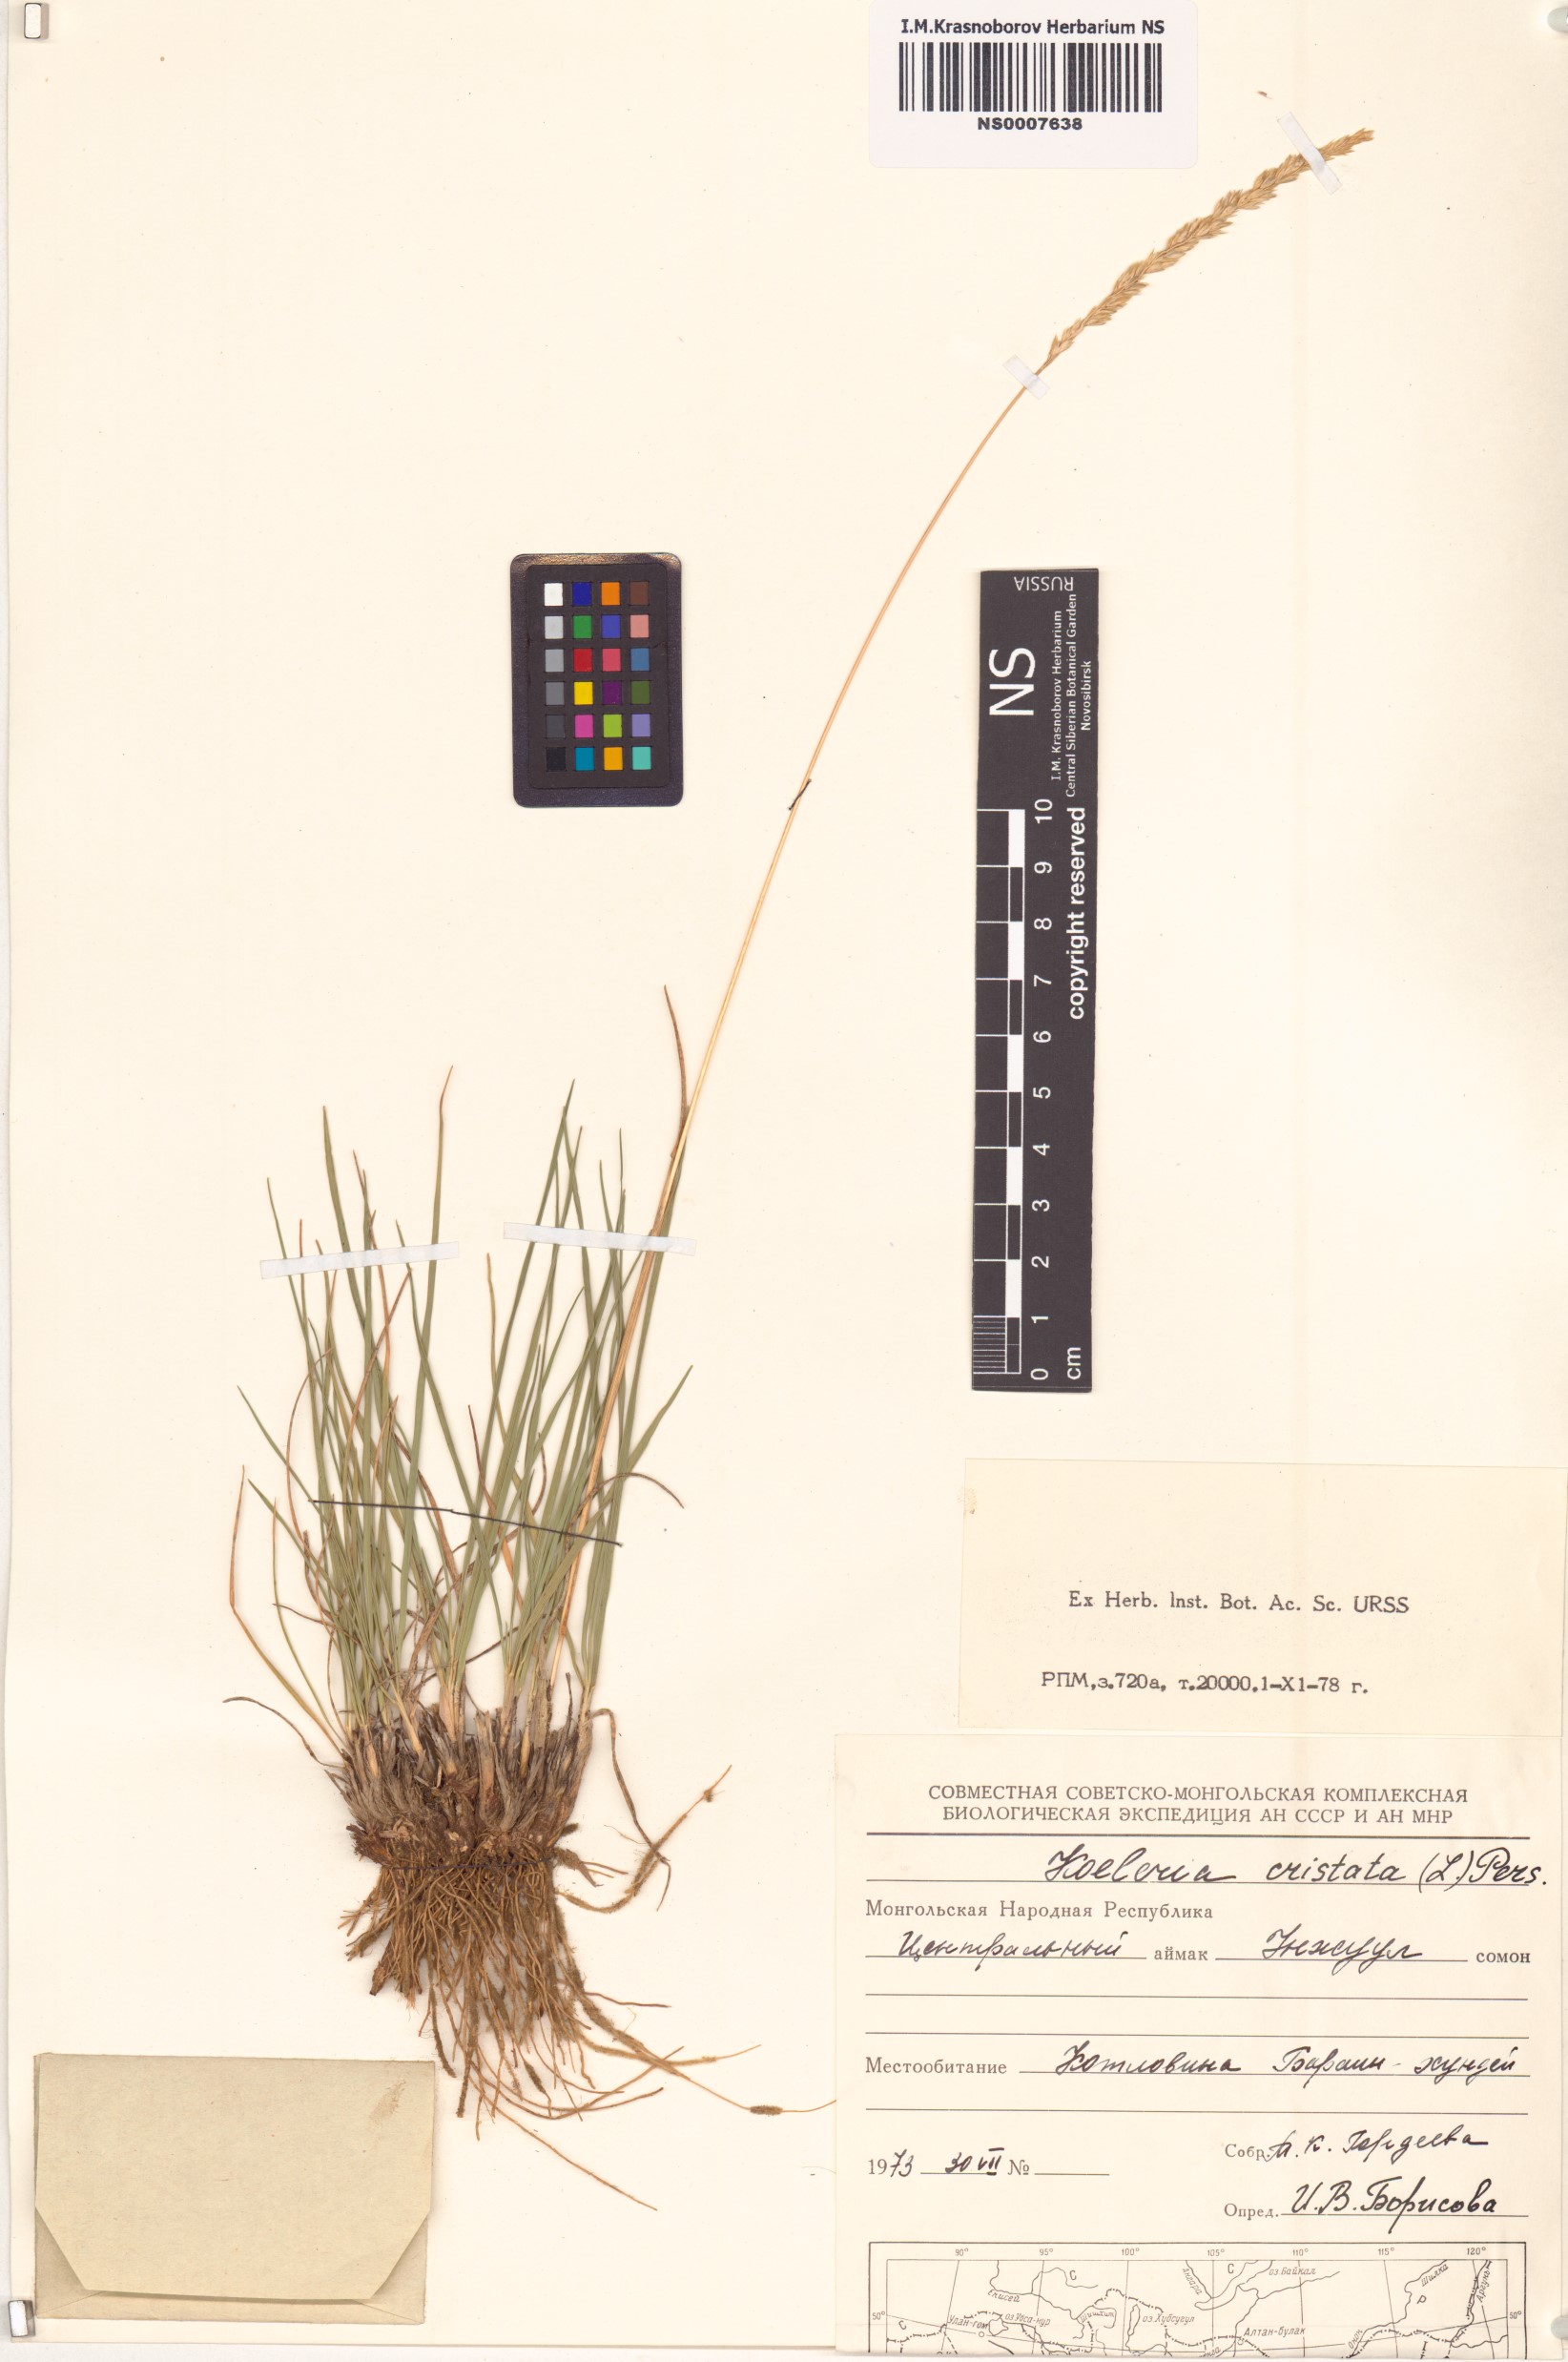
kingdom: Plantae
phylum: Tracheophyta
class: Liliopsida
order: Poales
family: Poaceae
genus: Rostraria
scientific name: Rostraria cristata
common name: Mediterranean hair-grass
